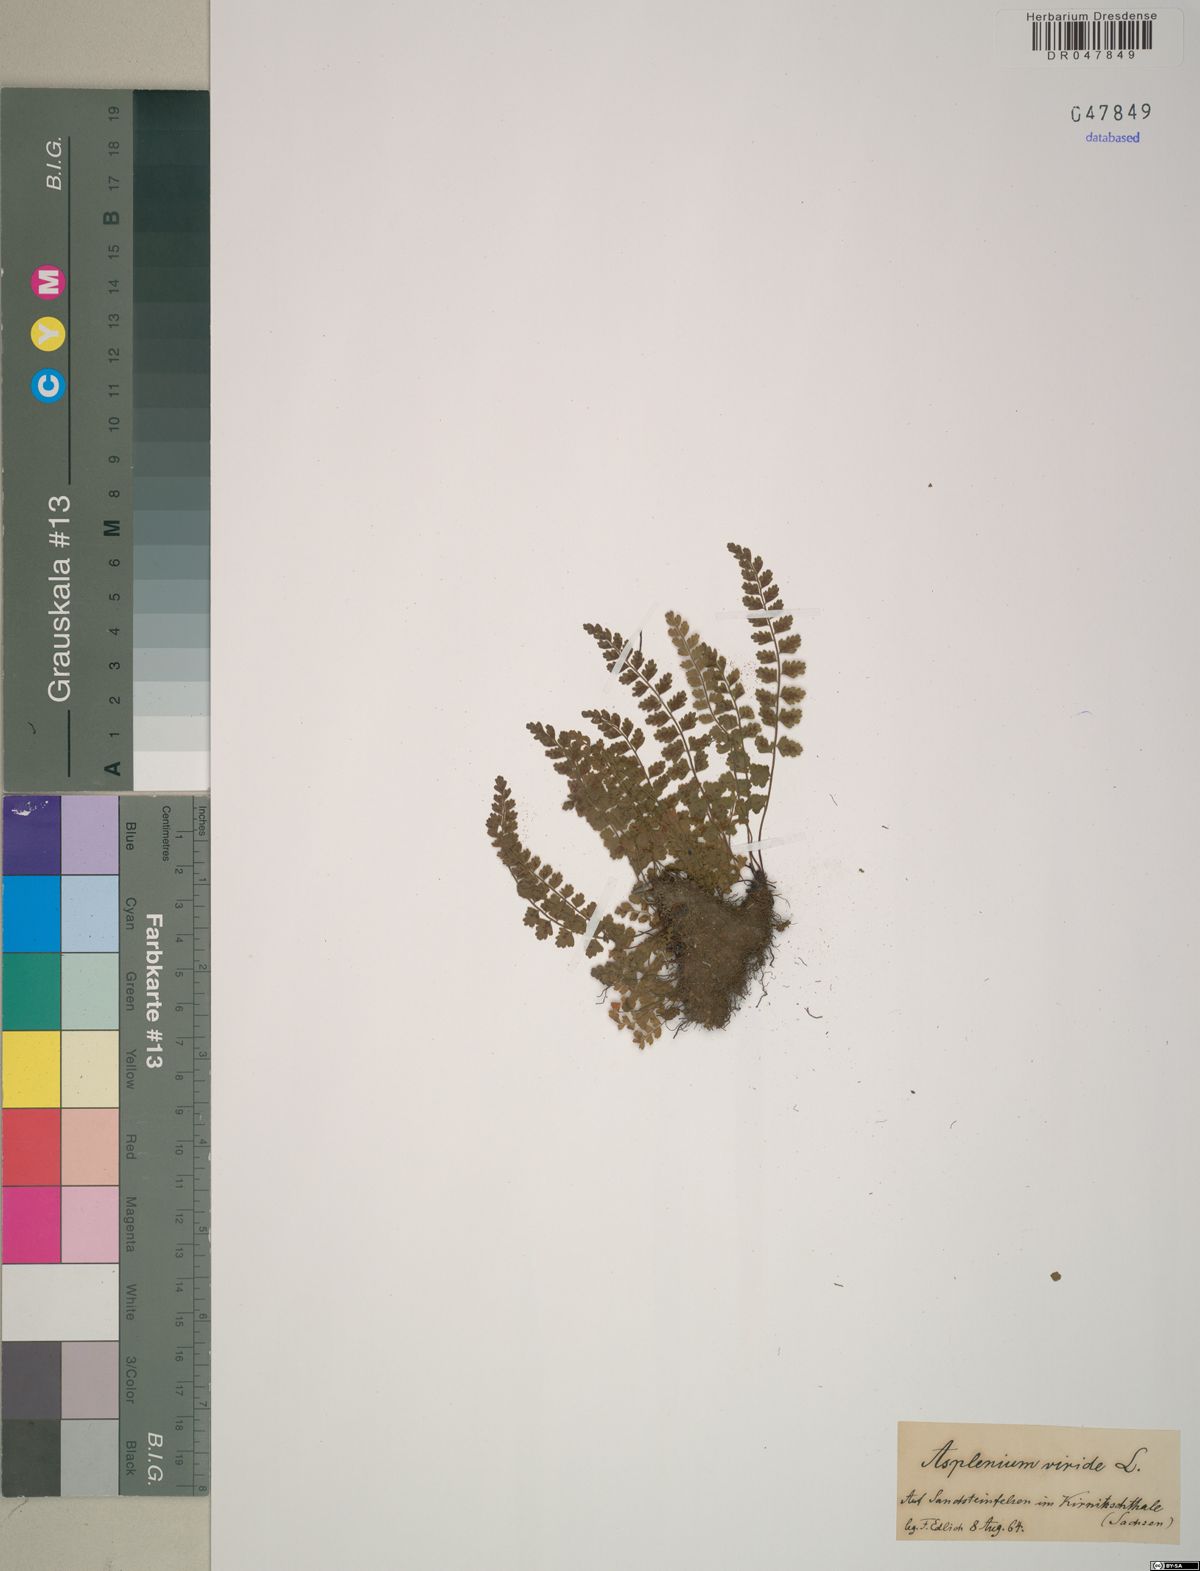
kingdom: Plantae
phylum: Tracheophyta
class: Polypodiopsida
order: Polypodiales
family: Aspleniaceae
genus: Asplenium
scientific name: Asplenium viride
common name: Green spleenwort
